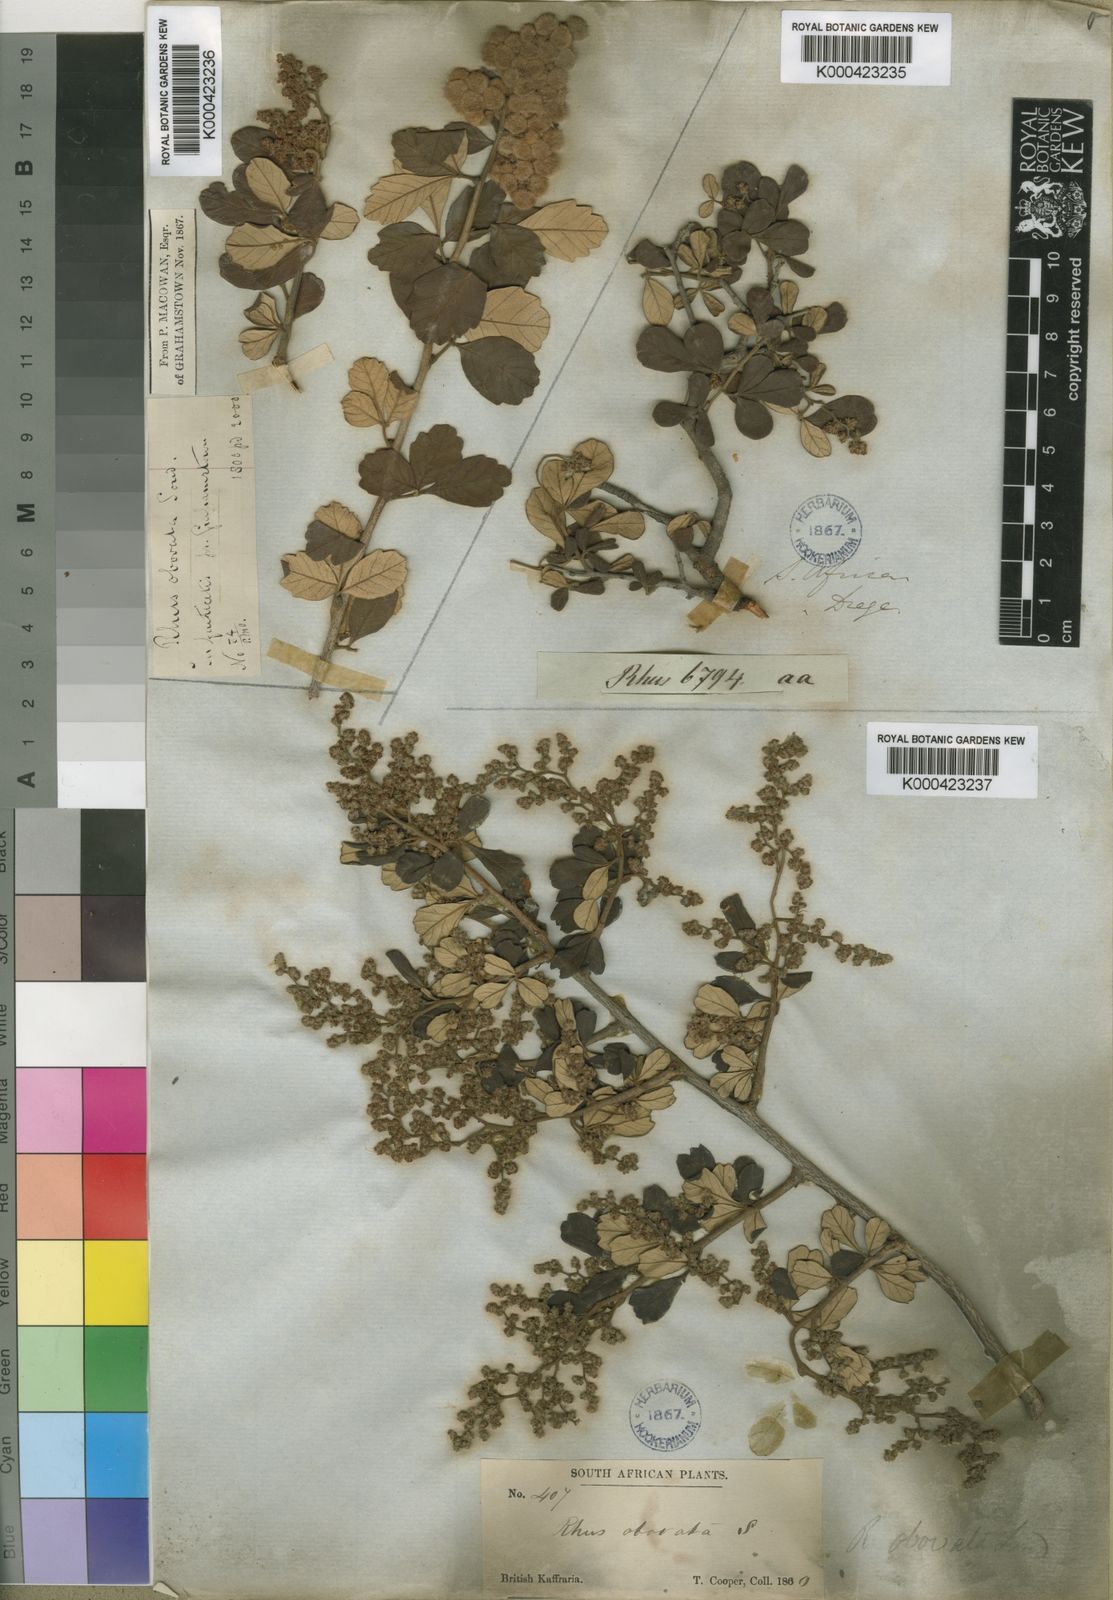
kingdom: Plantae
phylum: Tracheophyta
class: Magnoliopsida
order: Sapindales
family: Anacardiaceae
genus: Searsia
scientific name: Searsia incisa
